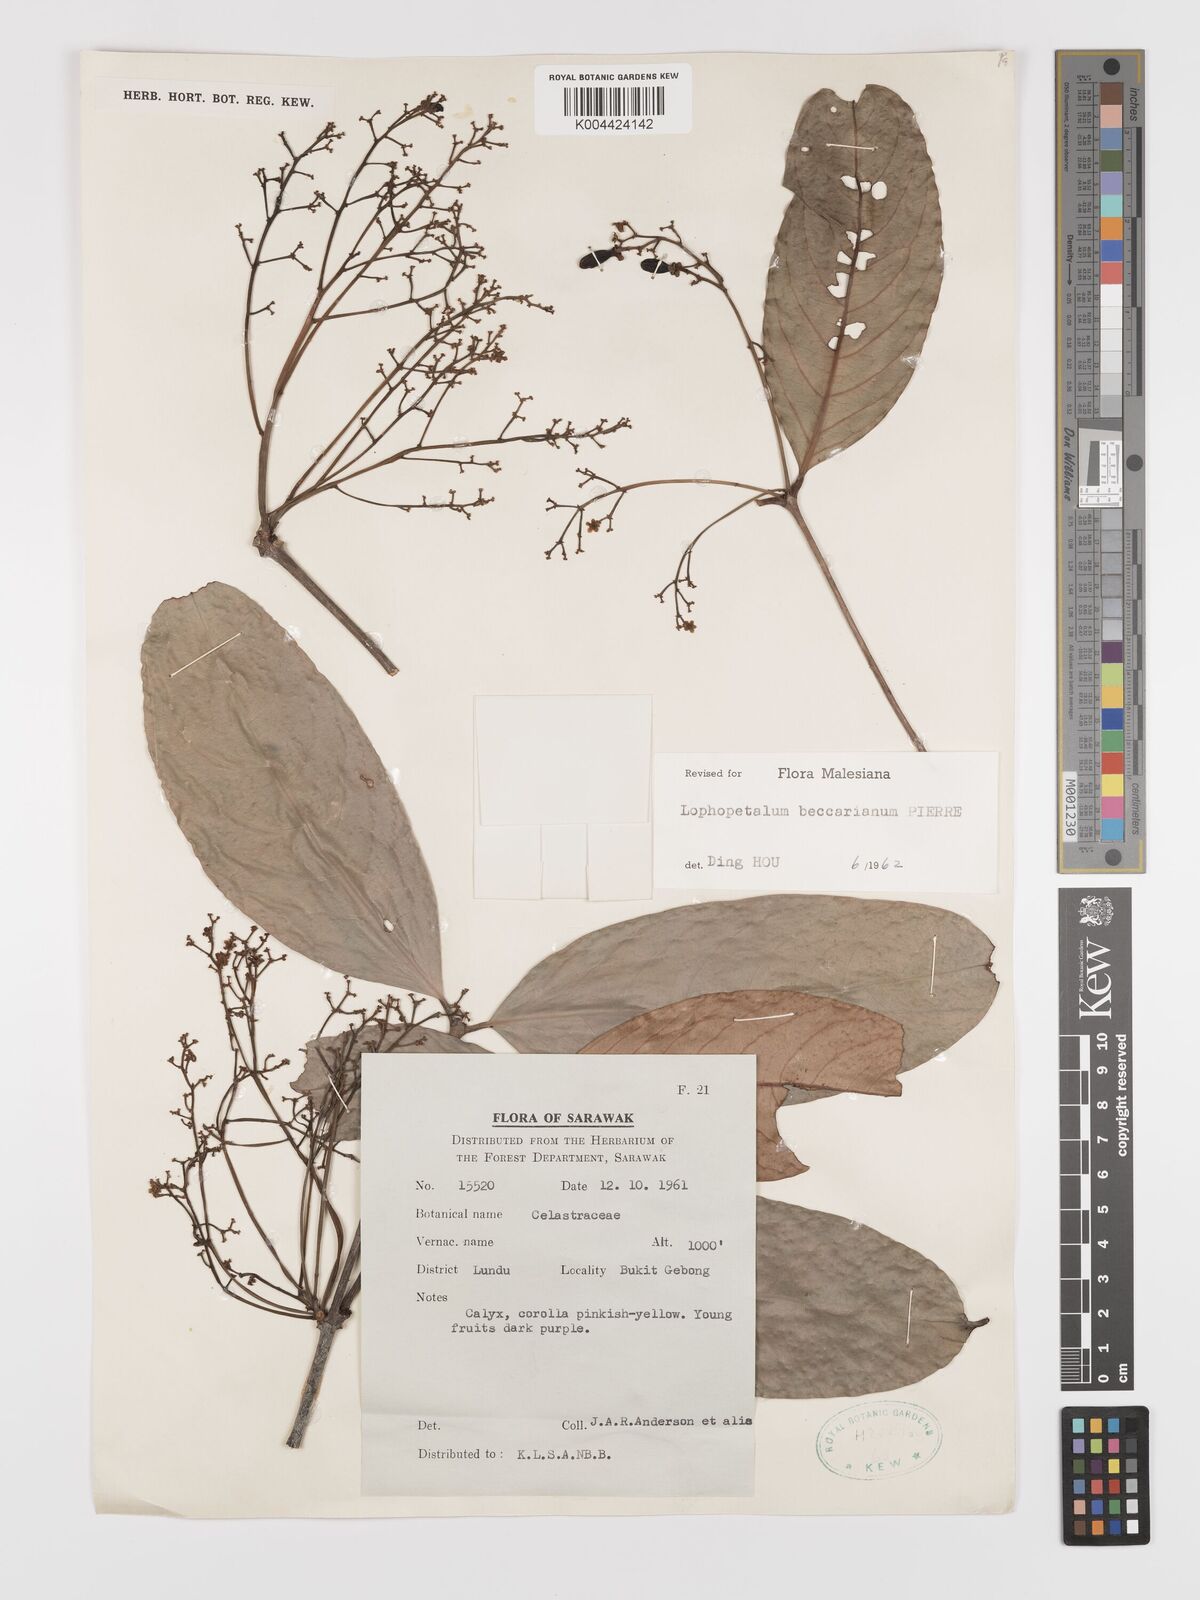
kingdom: Plantae
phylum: Tracheophyta
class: Magnoliopsida
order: Celastrales
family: Celastraceae
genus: Lophopetalum
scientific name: Lophopetalum beccarianum
